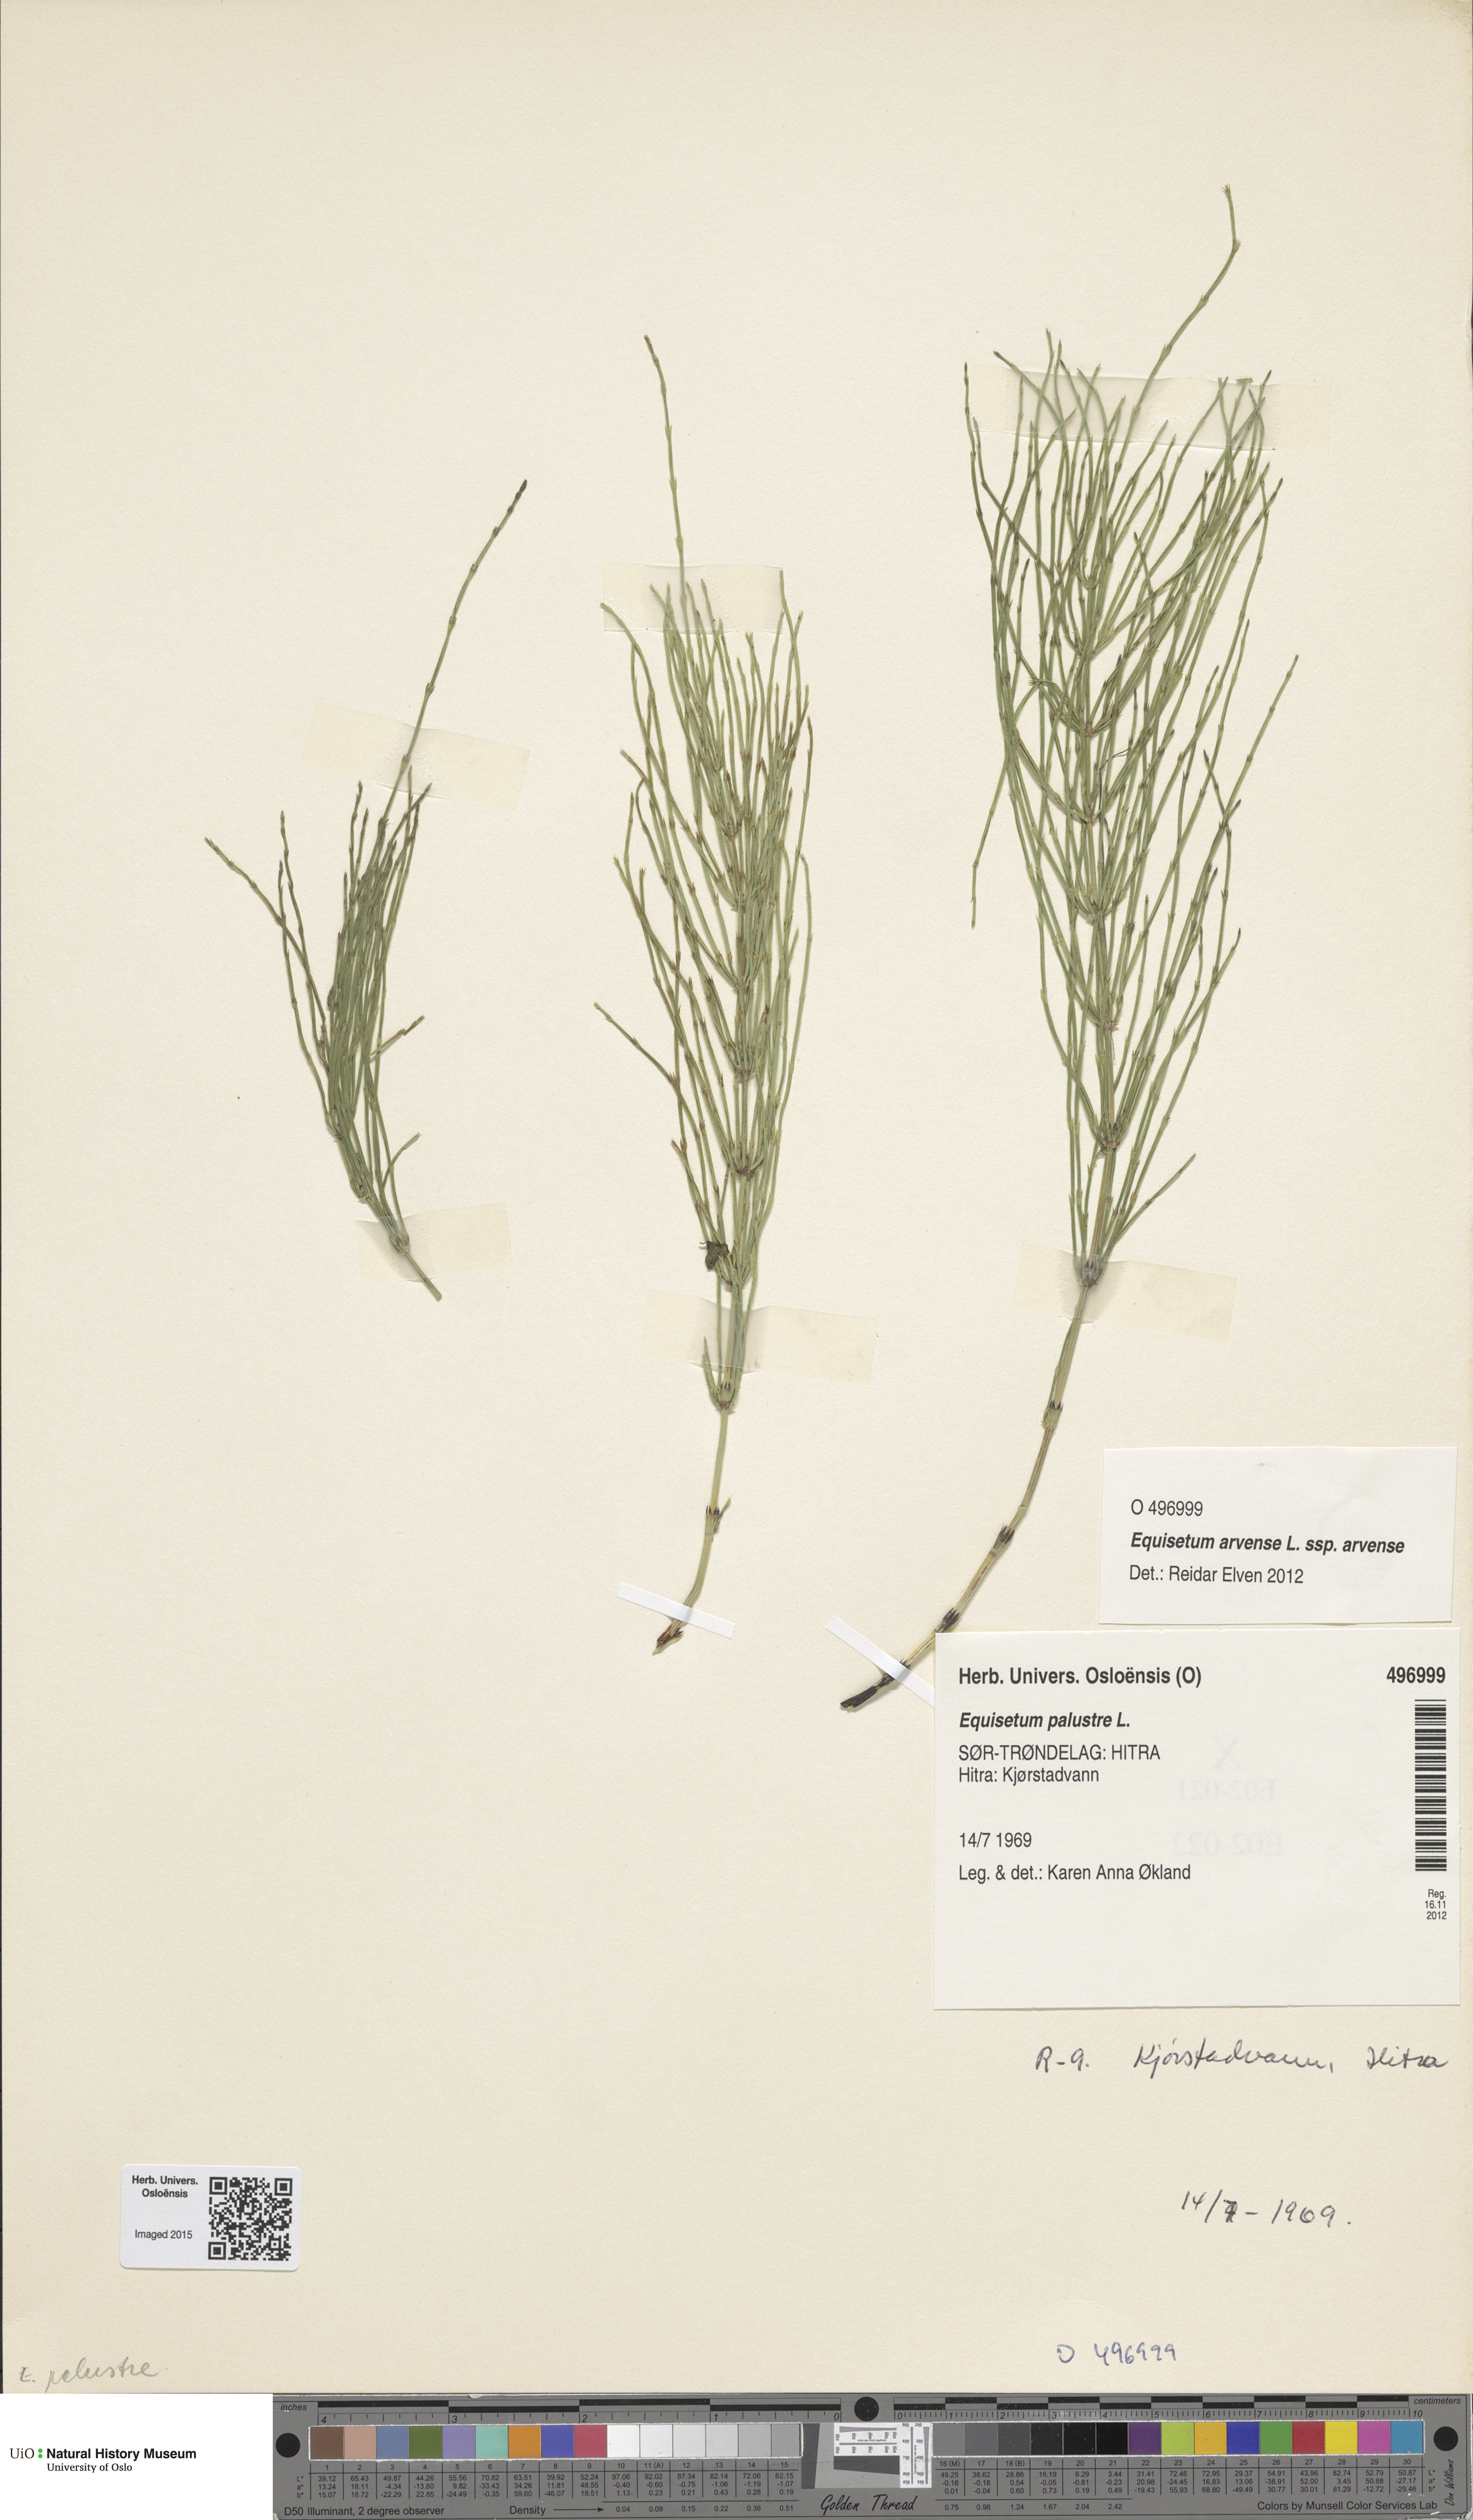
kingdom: Plantae
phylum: Tracheophyta
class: Polypodiopsida
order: Equisetales
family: Equisetaceae
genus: Equisetum
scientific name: Equisetum palustre
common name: Marsh horsetail
